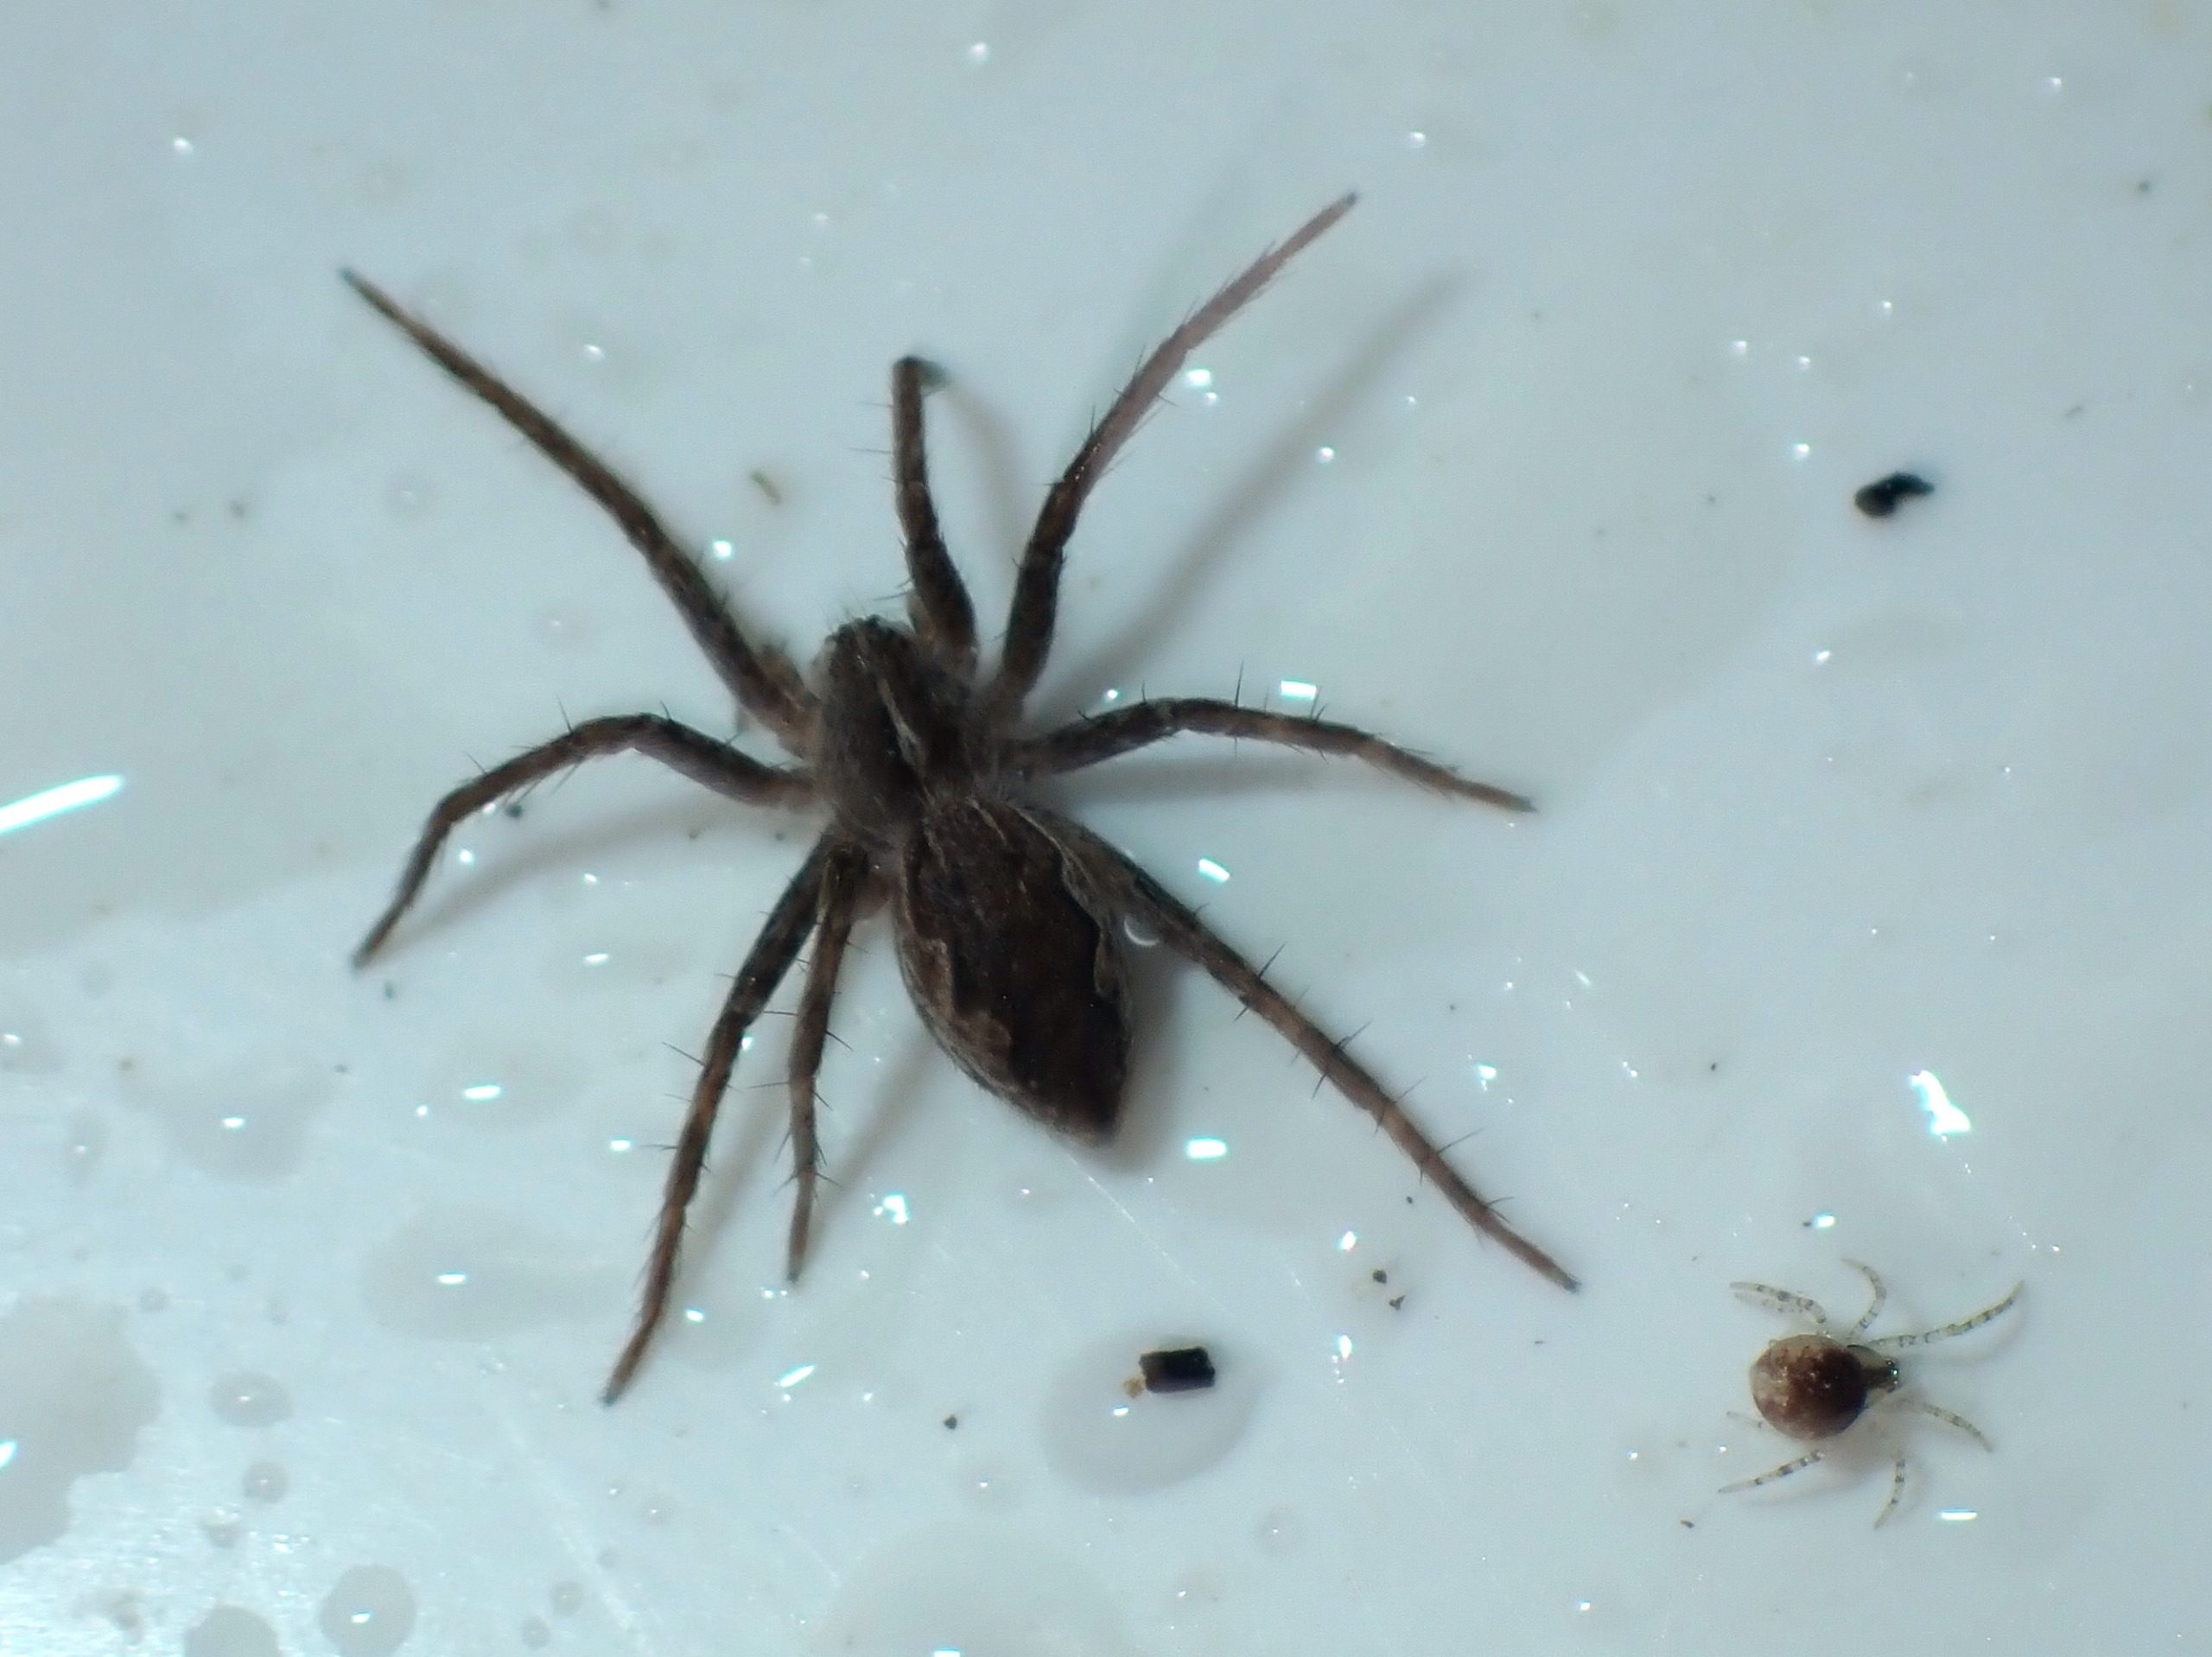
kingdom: Animalia
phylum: Arthropoda
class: Arachnida
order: Araneae
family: Pisauridae
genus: Pisaura
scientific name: Pisaura mirabilis
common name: Almindelig rovedderkop
